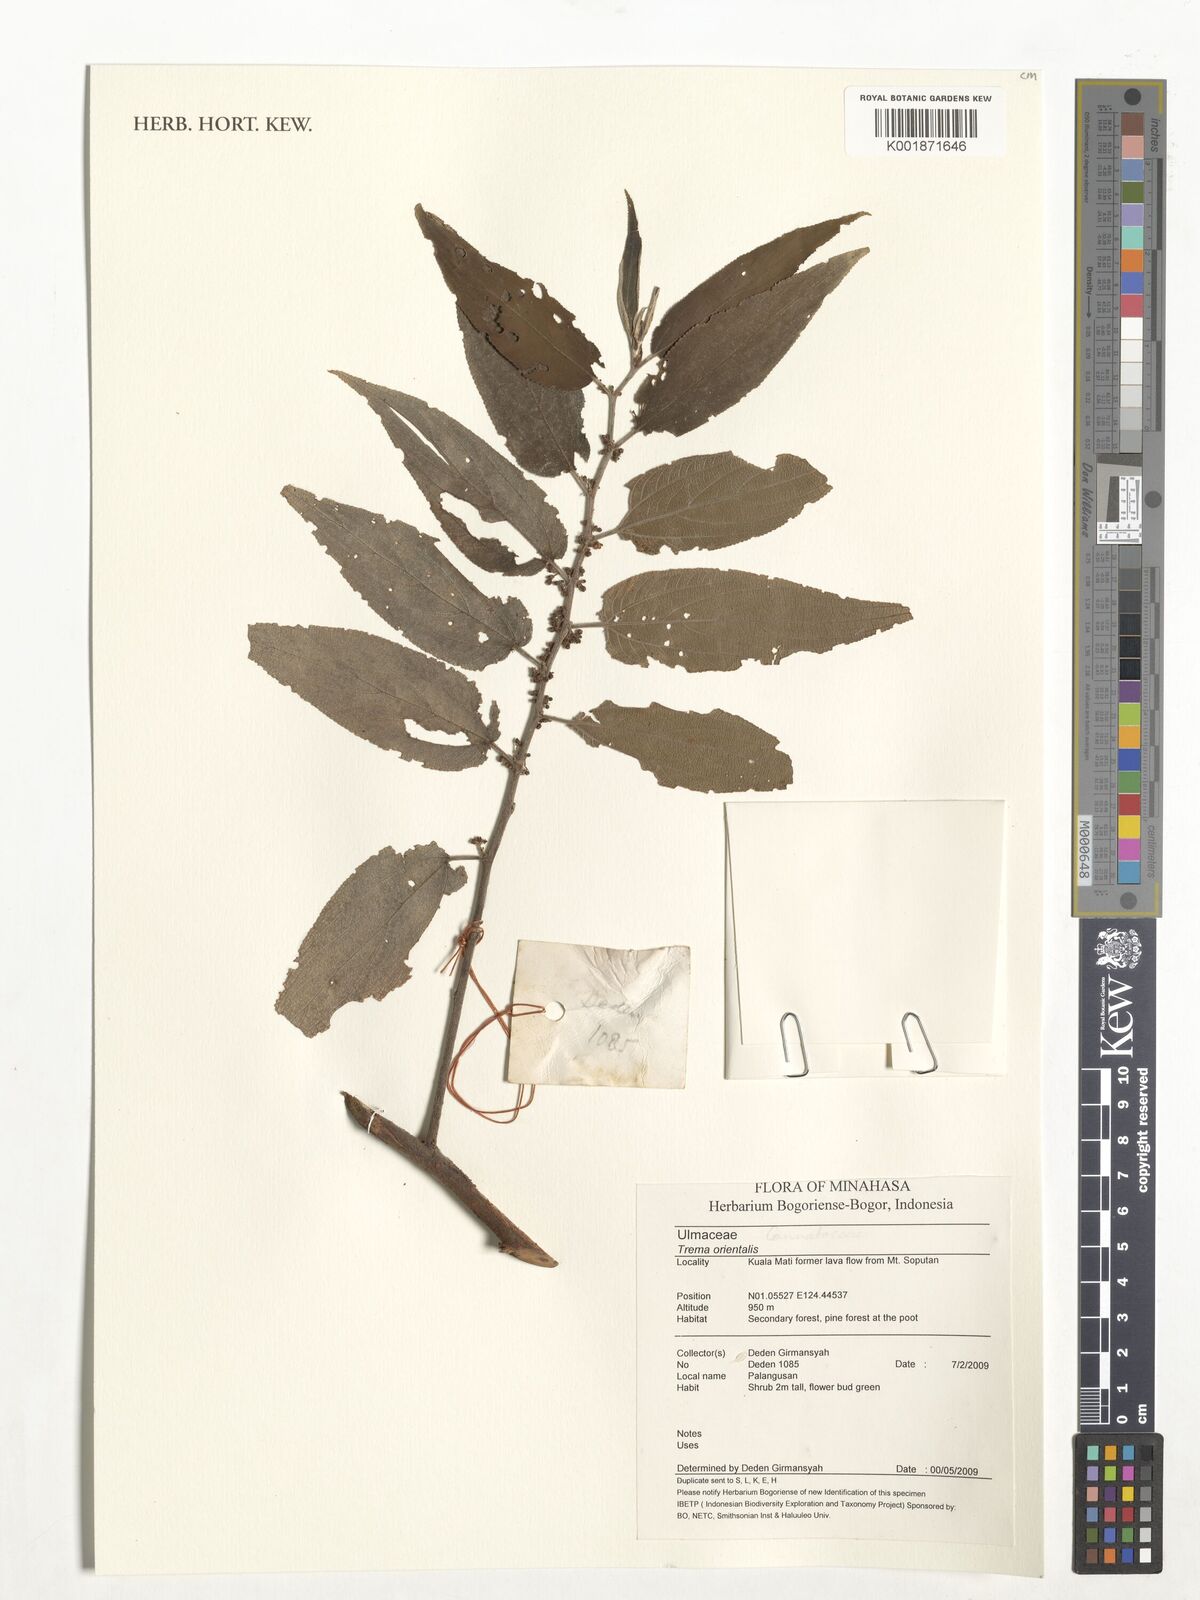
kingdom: Plantae
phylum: Tracheophyta
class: Magnoliopsida
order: Rosales
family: Cannabaceae
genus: Trema
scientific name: Trema
